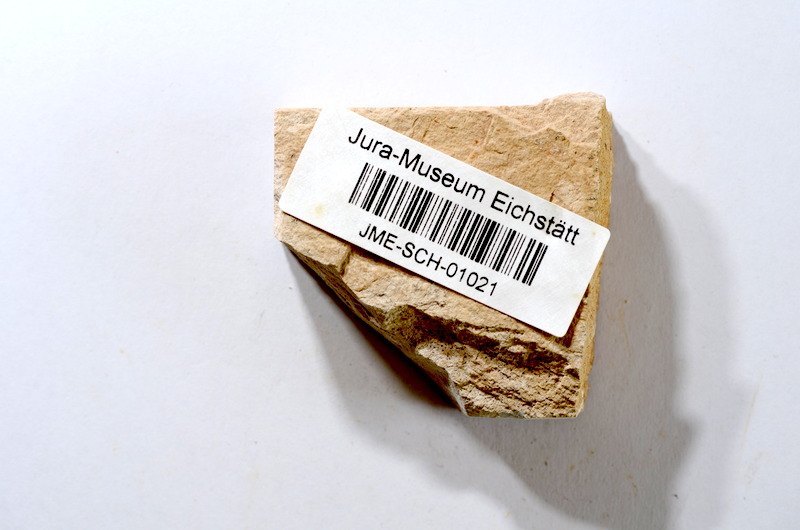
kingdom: Animalia
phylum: Chordata
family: Ascalaboidae
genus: Tharsis
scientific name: Tharsis dubius
